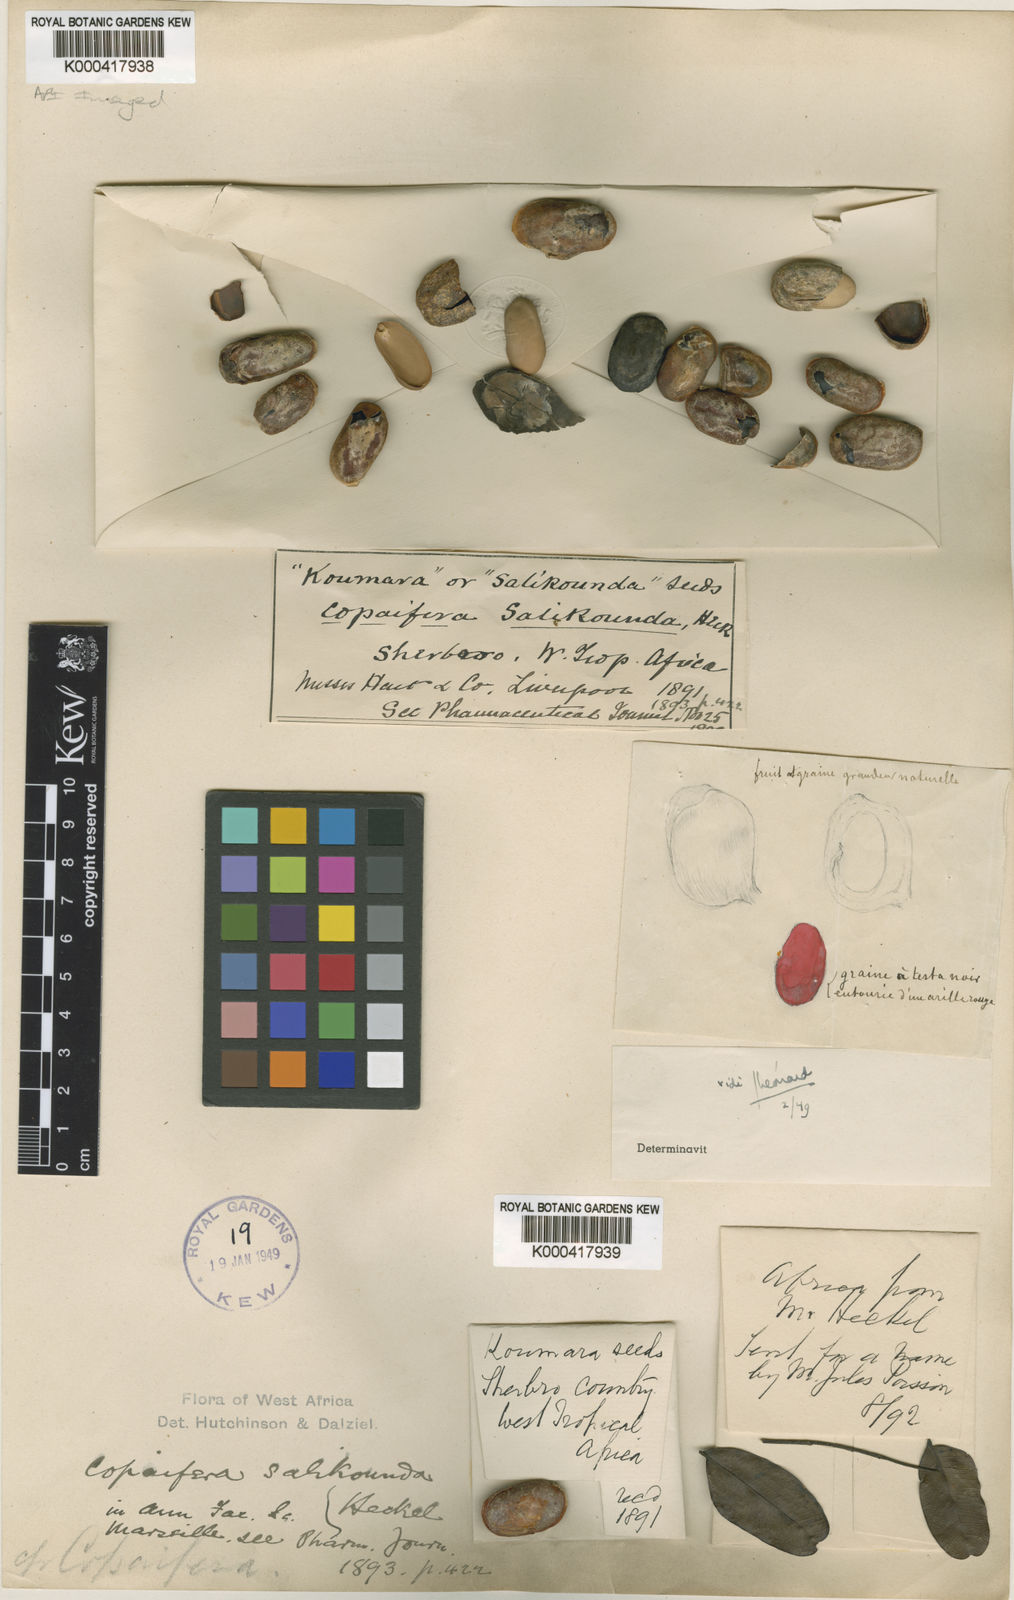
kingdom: Plantae
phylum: Tracheophyta
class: Magnoliopsida
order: Fabales
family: Fabaceae
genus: Copaifera
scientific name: Copaifera salikounda
